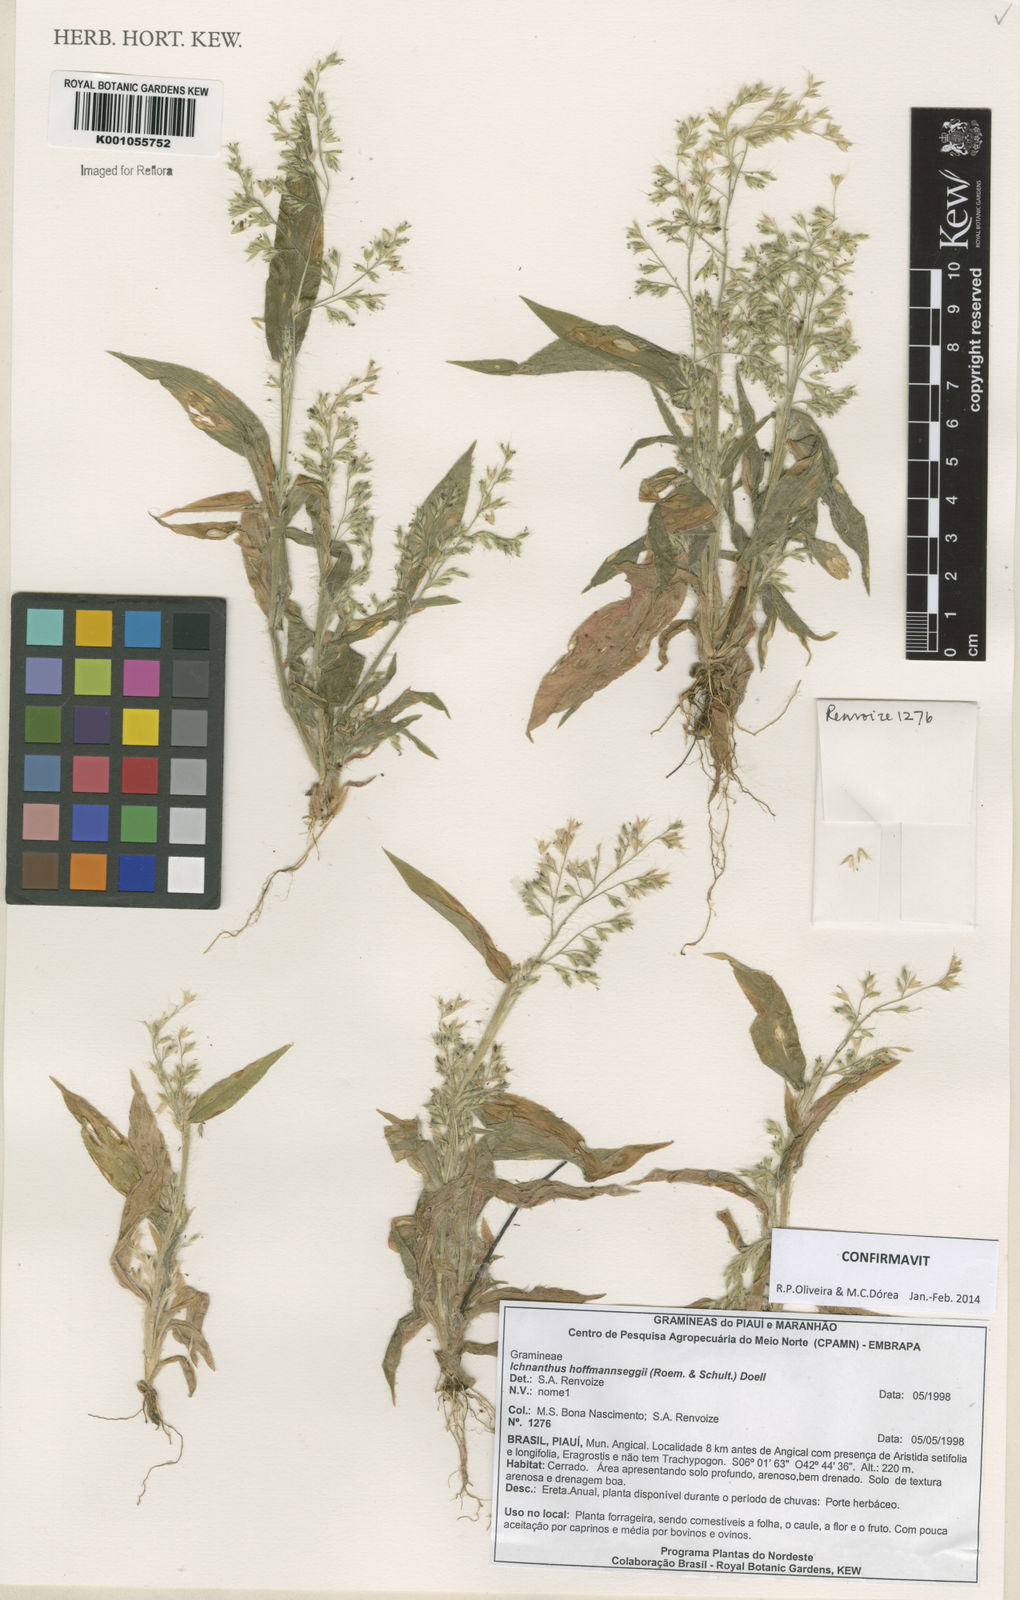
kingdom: Plantae
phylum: Tracheophyta
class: Liliopsida
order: Poales
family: Poaceae
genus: Ichnanthus
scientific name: Ichnanthus
